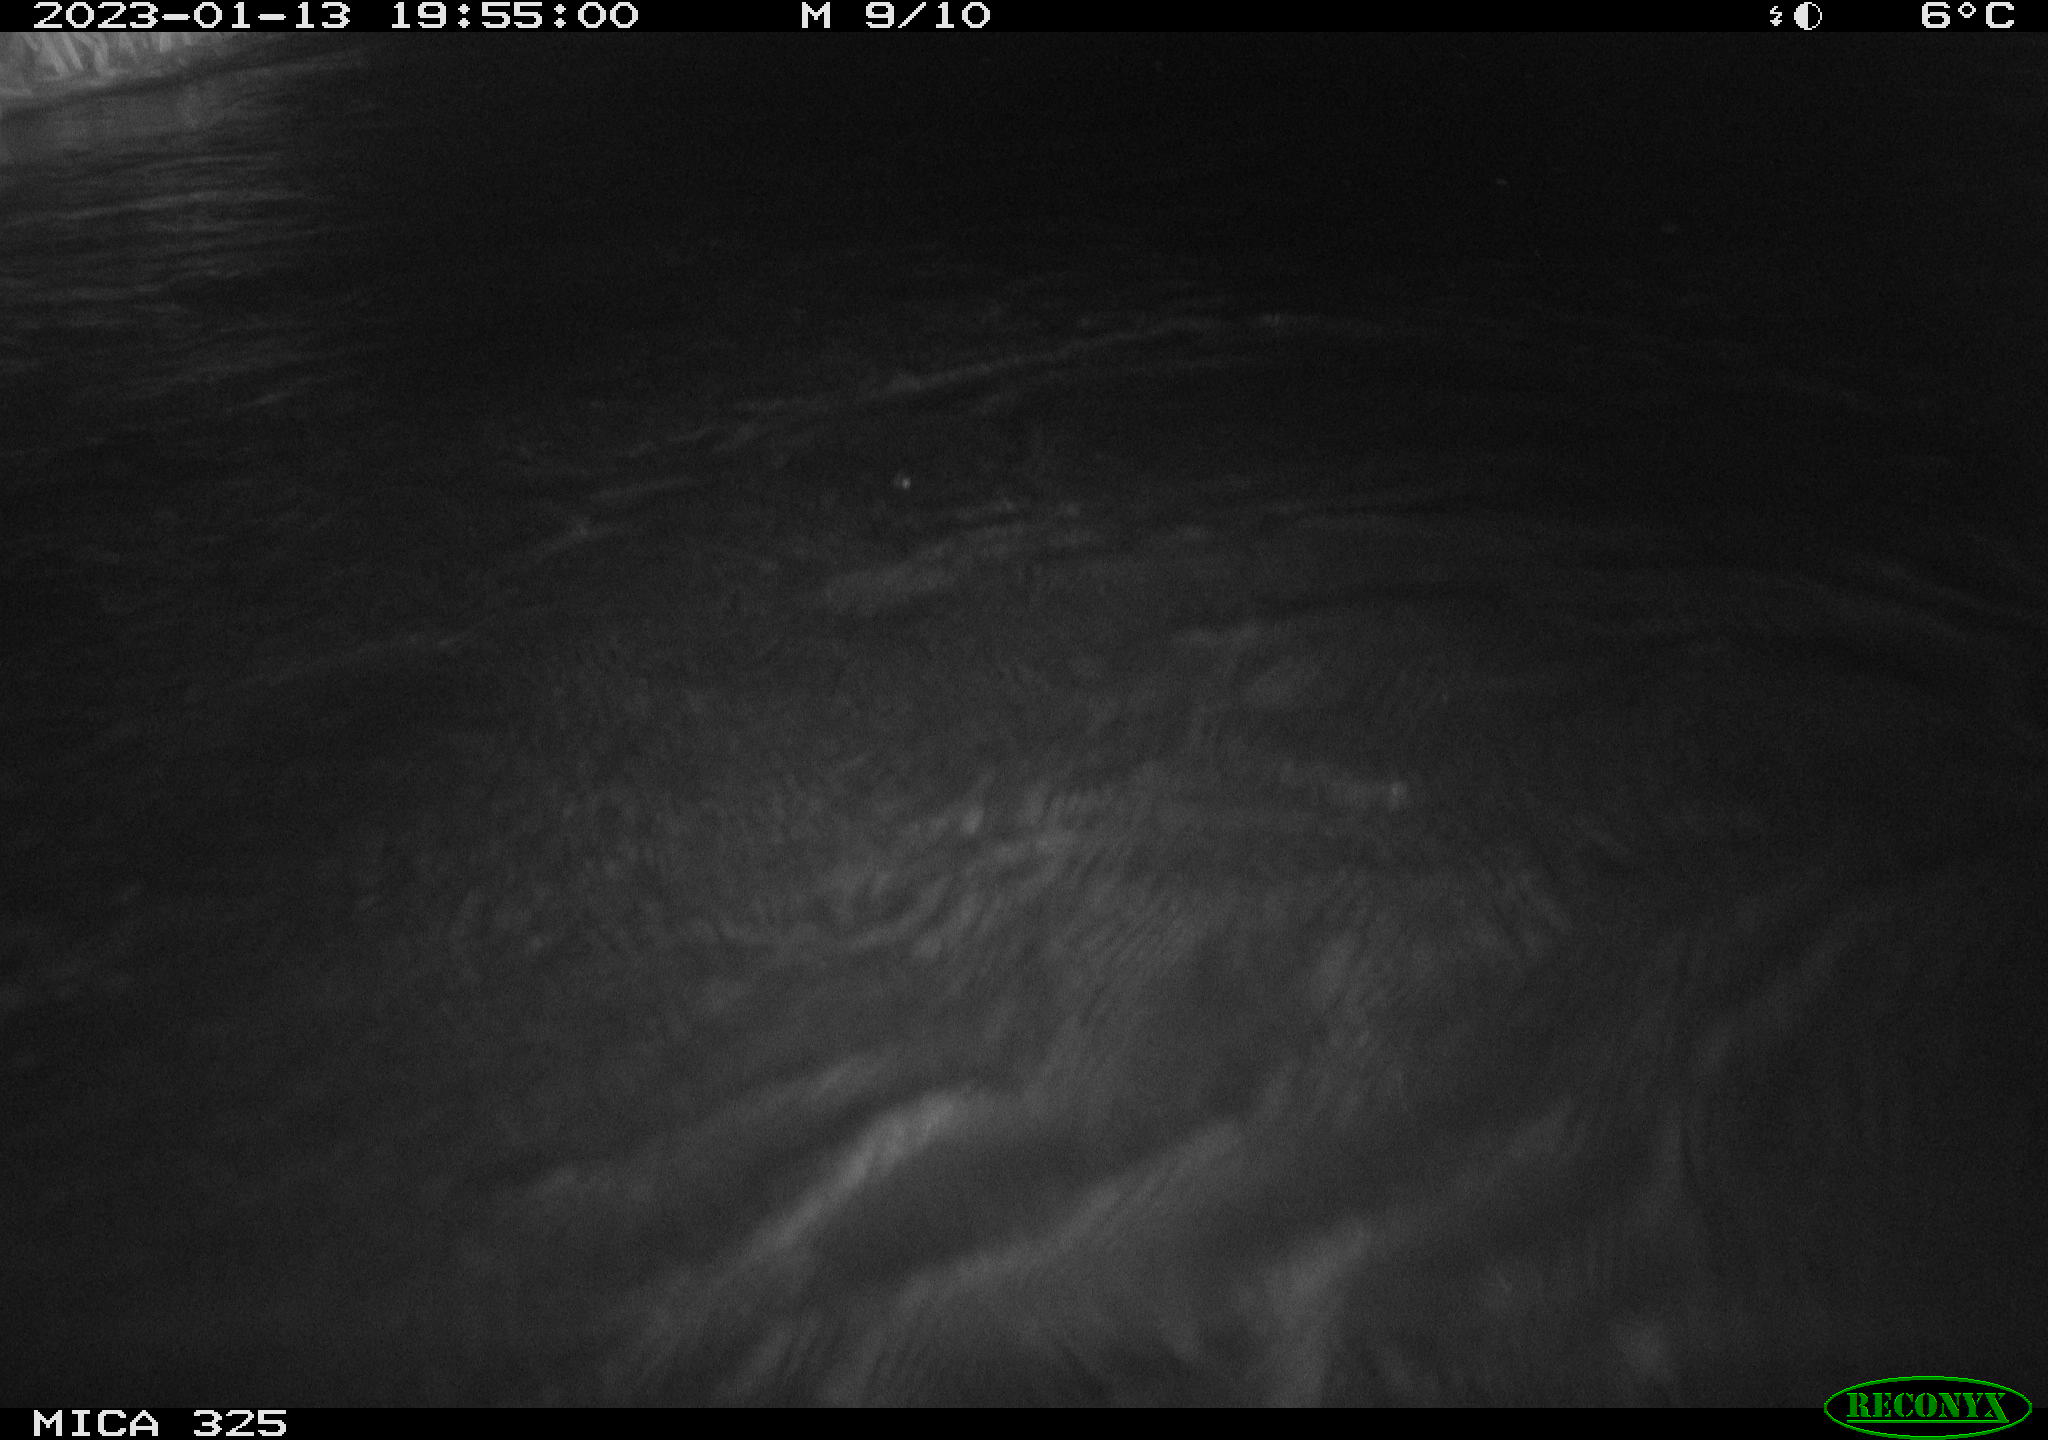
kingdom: Animalia
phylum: Chordata
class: Mammalia
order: Rodentia
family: Myocastoridae
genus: Myocastor
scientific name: Myocastor coypus
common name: Coypu
